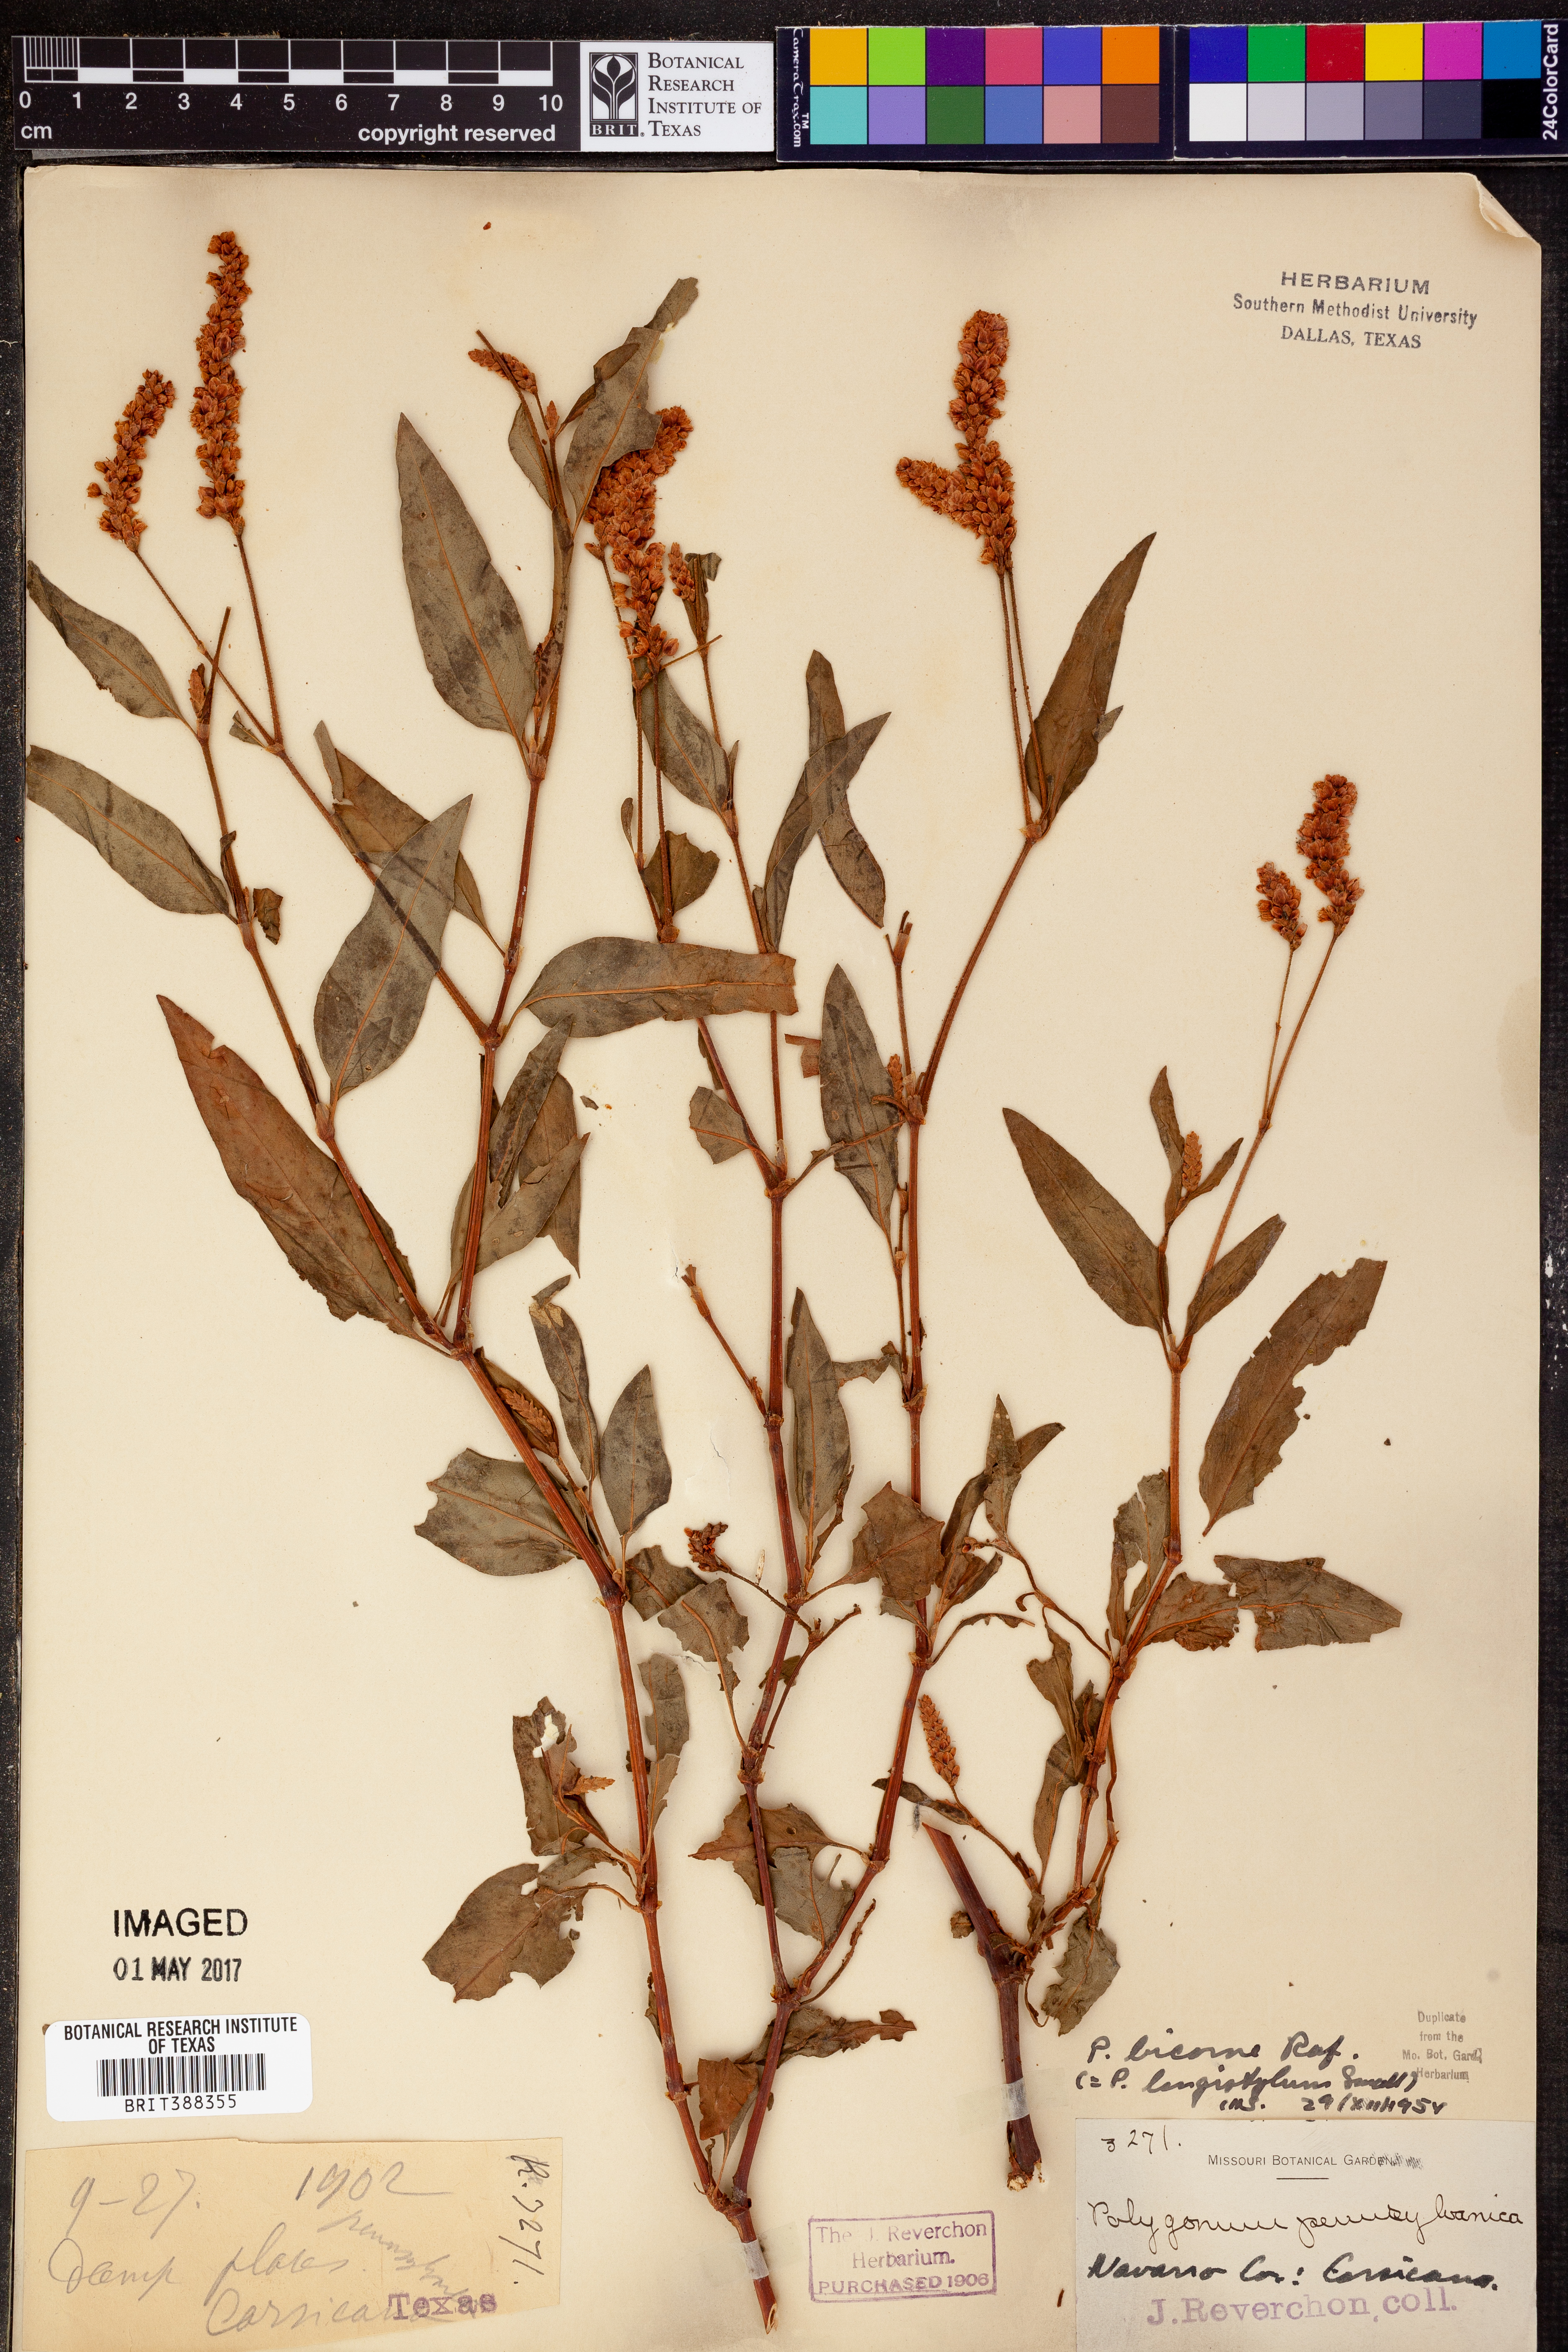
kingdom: Plantae
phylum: Tracheophyta
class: Magnoliopsida
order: Caryophyllales
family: Polygonaceae
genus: Persicaria
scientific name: Persicaria bicornis
